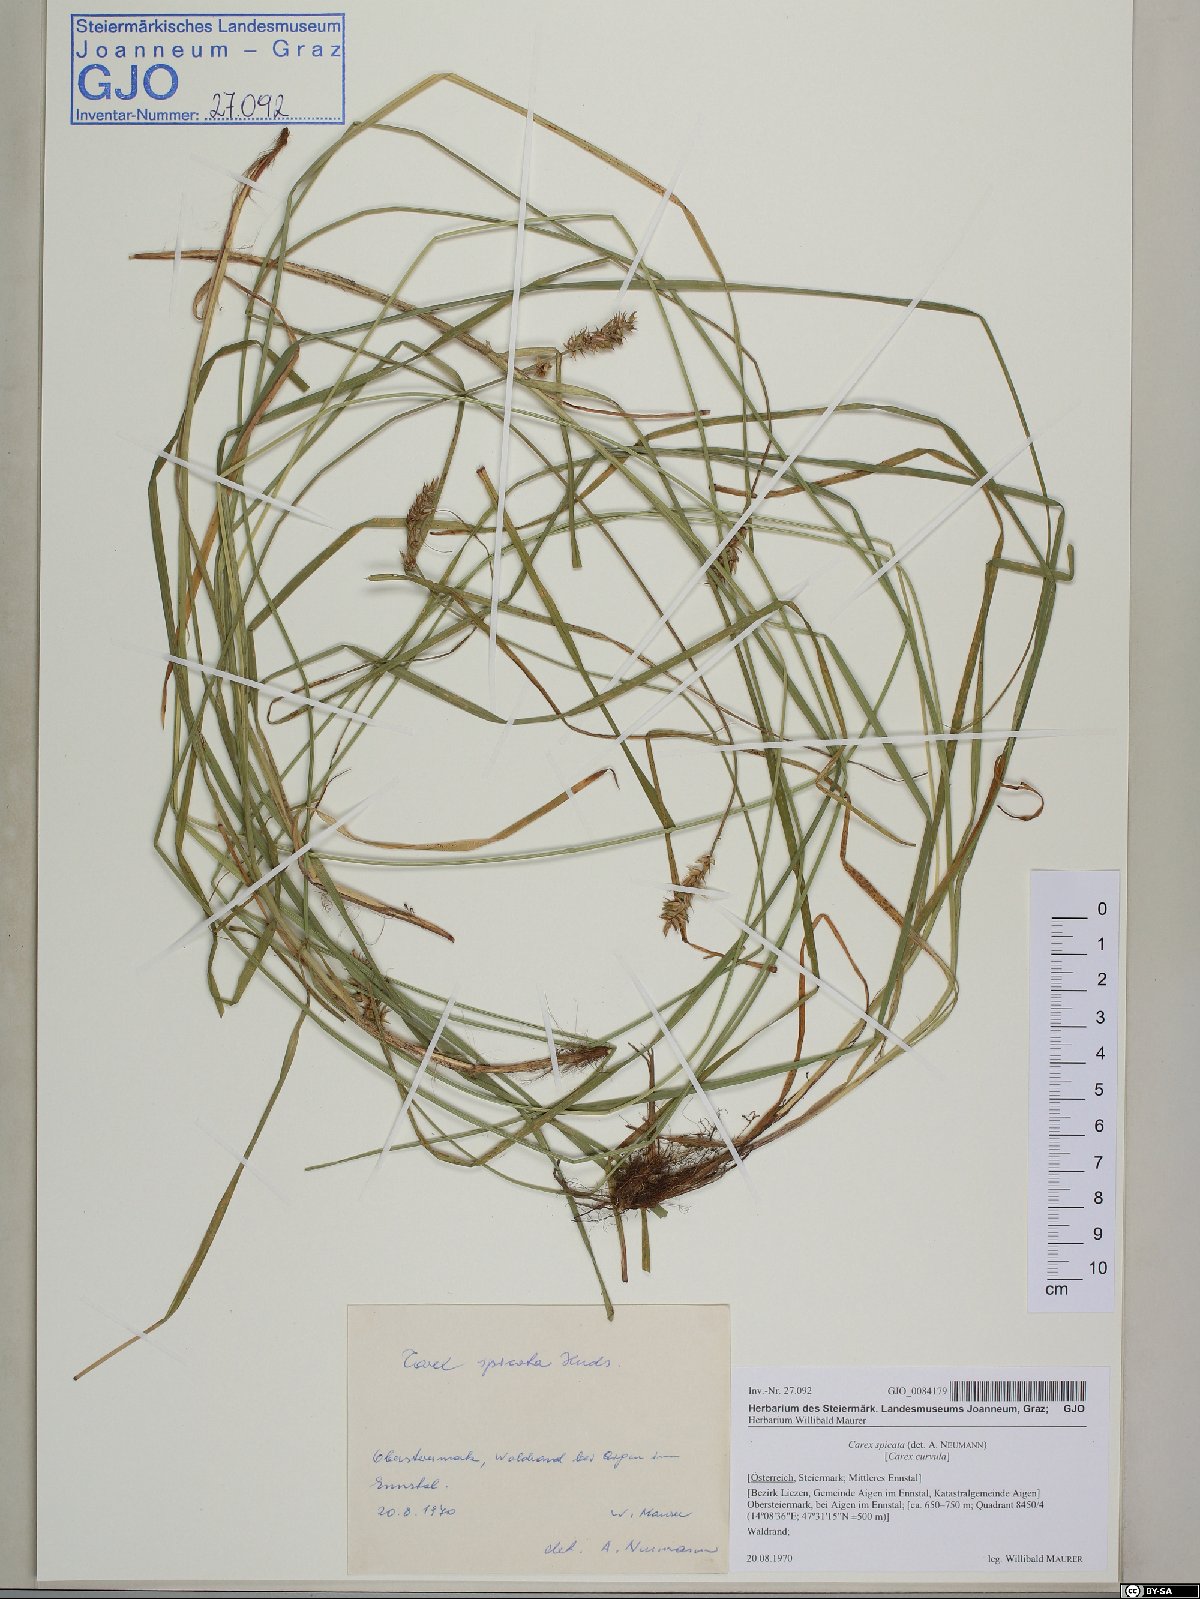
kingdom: Plantae
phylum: Tracheophyta
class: Liliopsida
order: Poales
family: Cyperaceae
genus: Carex
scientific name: Carex spicata
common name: Spiked sedge
